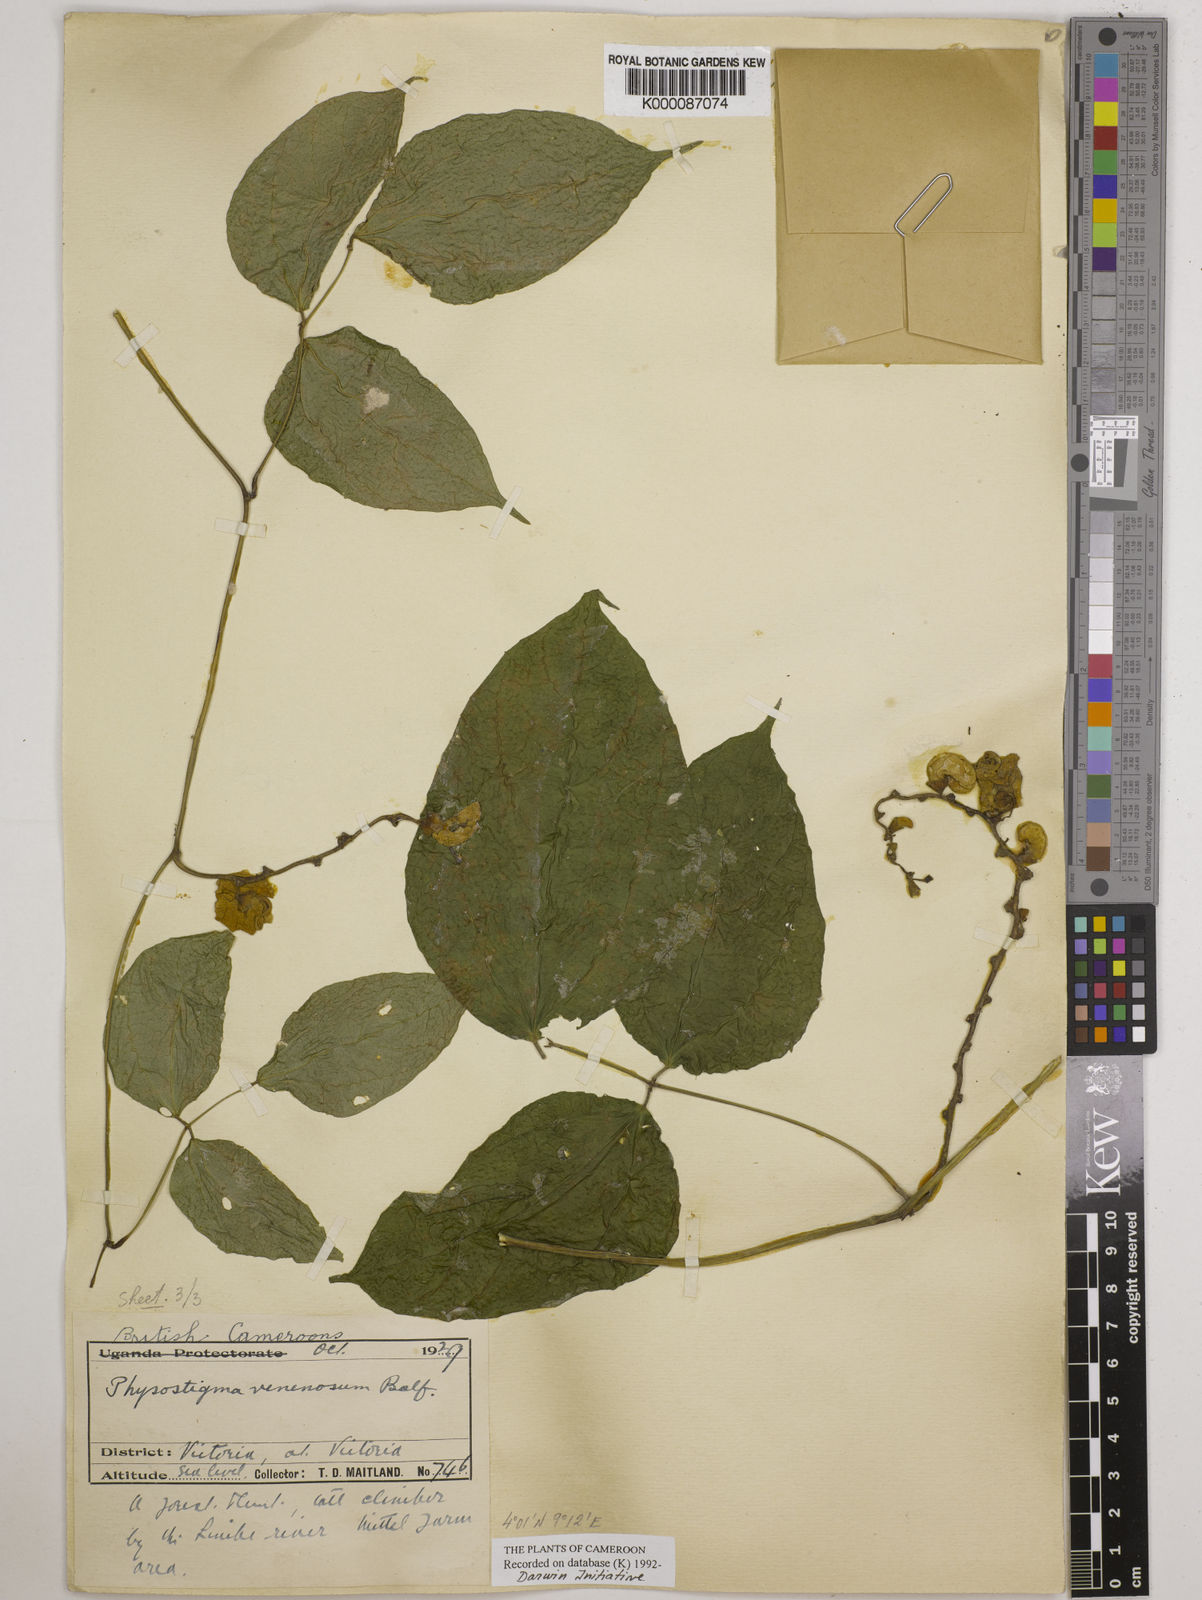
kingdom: Plantae
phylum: Tracheophyta
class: Magnoliopsida
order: Fabales
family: Fabaceae
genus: Physostigma
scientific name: Physostigma venenosum
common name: Calabar-bean
